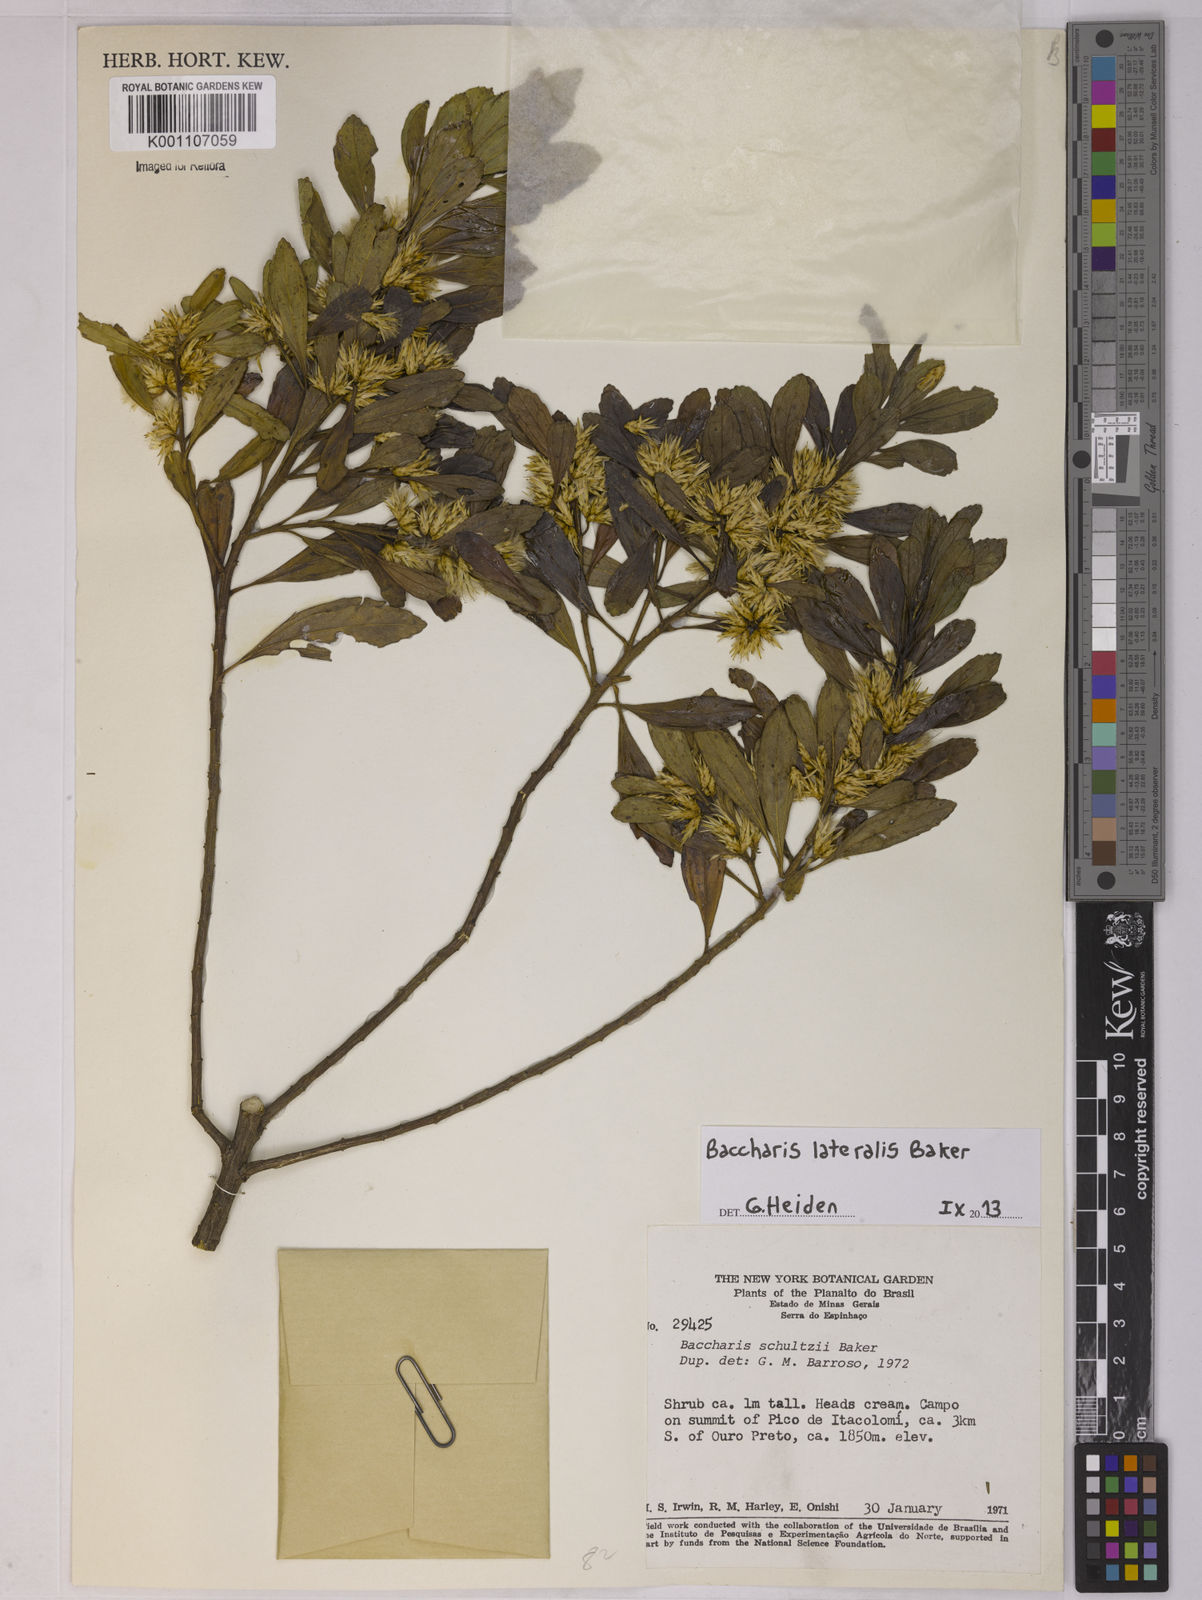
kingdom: Plantae
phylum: Tracheophyta
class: Magnoliopsida
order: Asterales
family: Asteraceae
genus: Baccharis
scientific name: Baccharis lateralis
